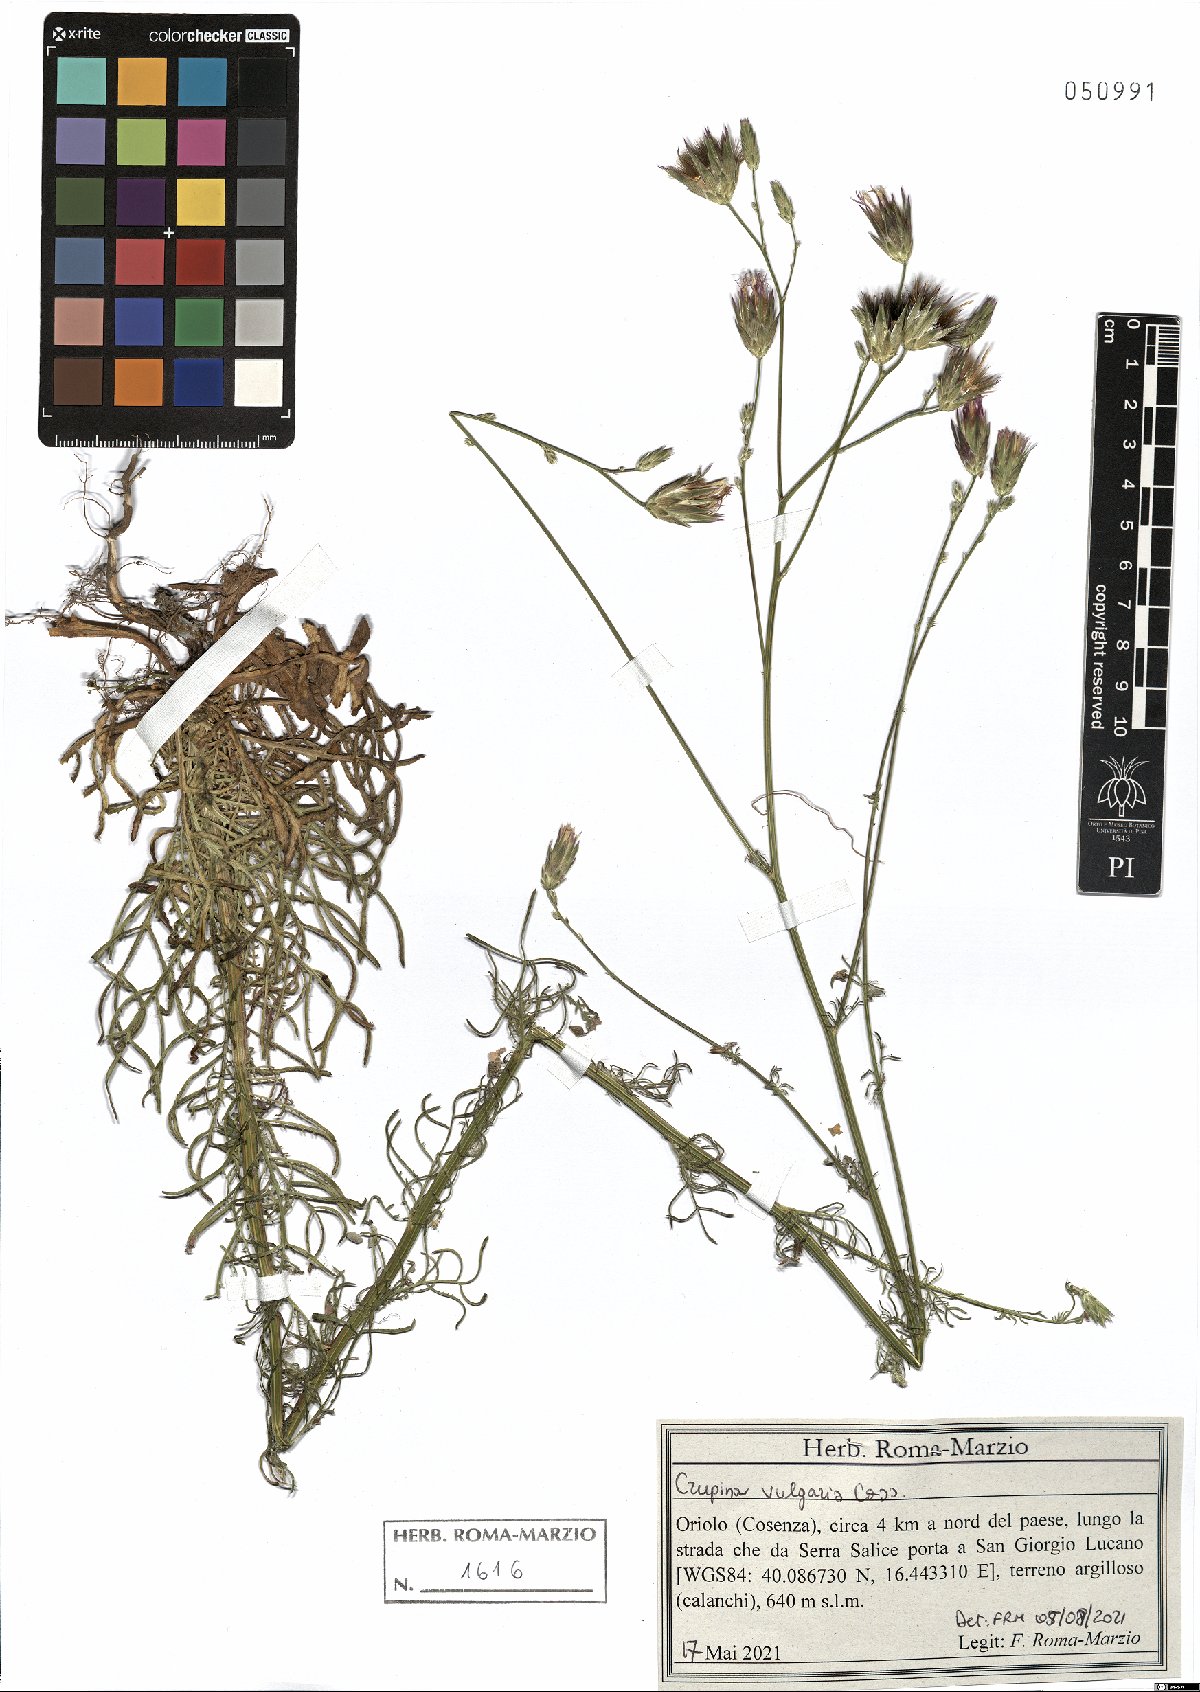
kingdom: Plantae
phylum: Tracheophyta
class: Magnoliopsida
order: Asterales
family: Asteraceae
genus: Crupina
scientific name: Crupina vulgaris
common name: Common crupina
